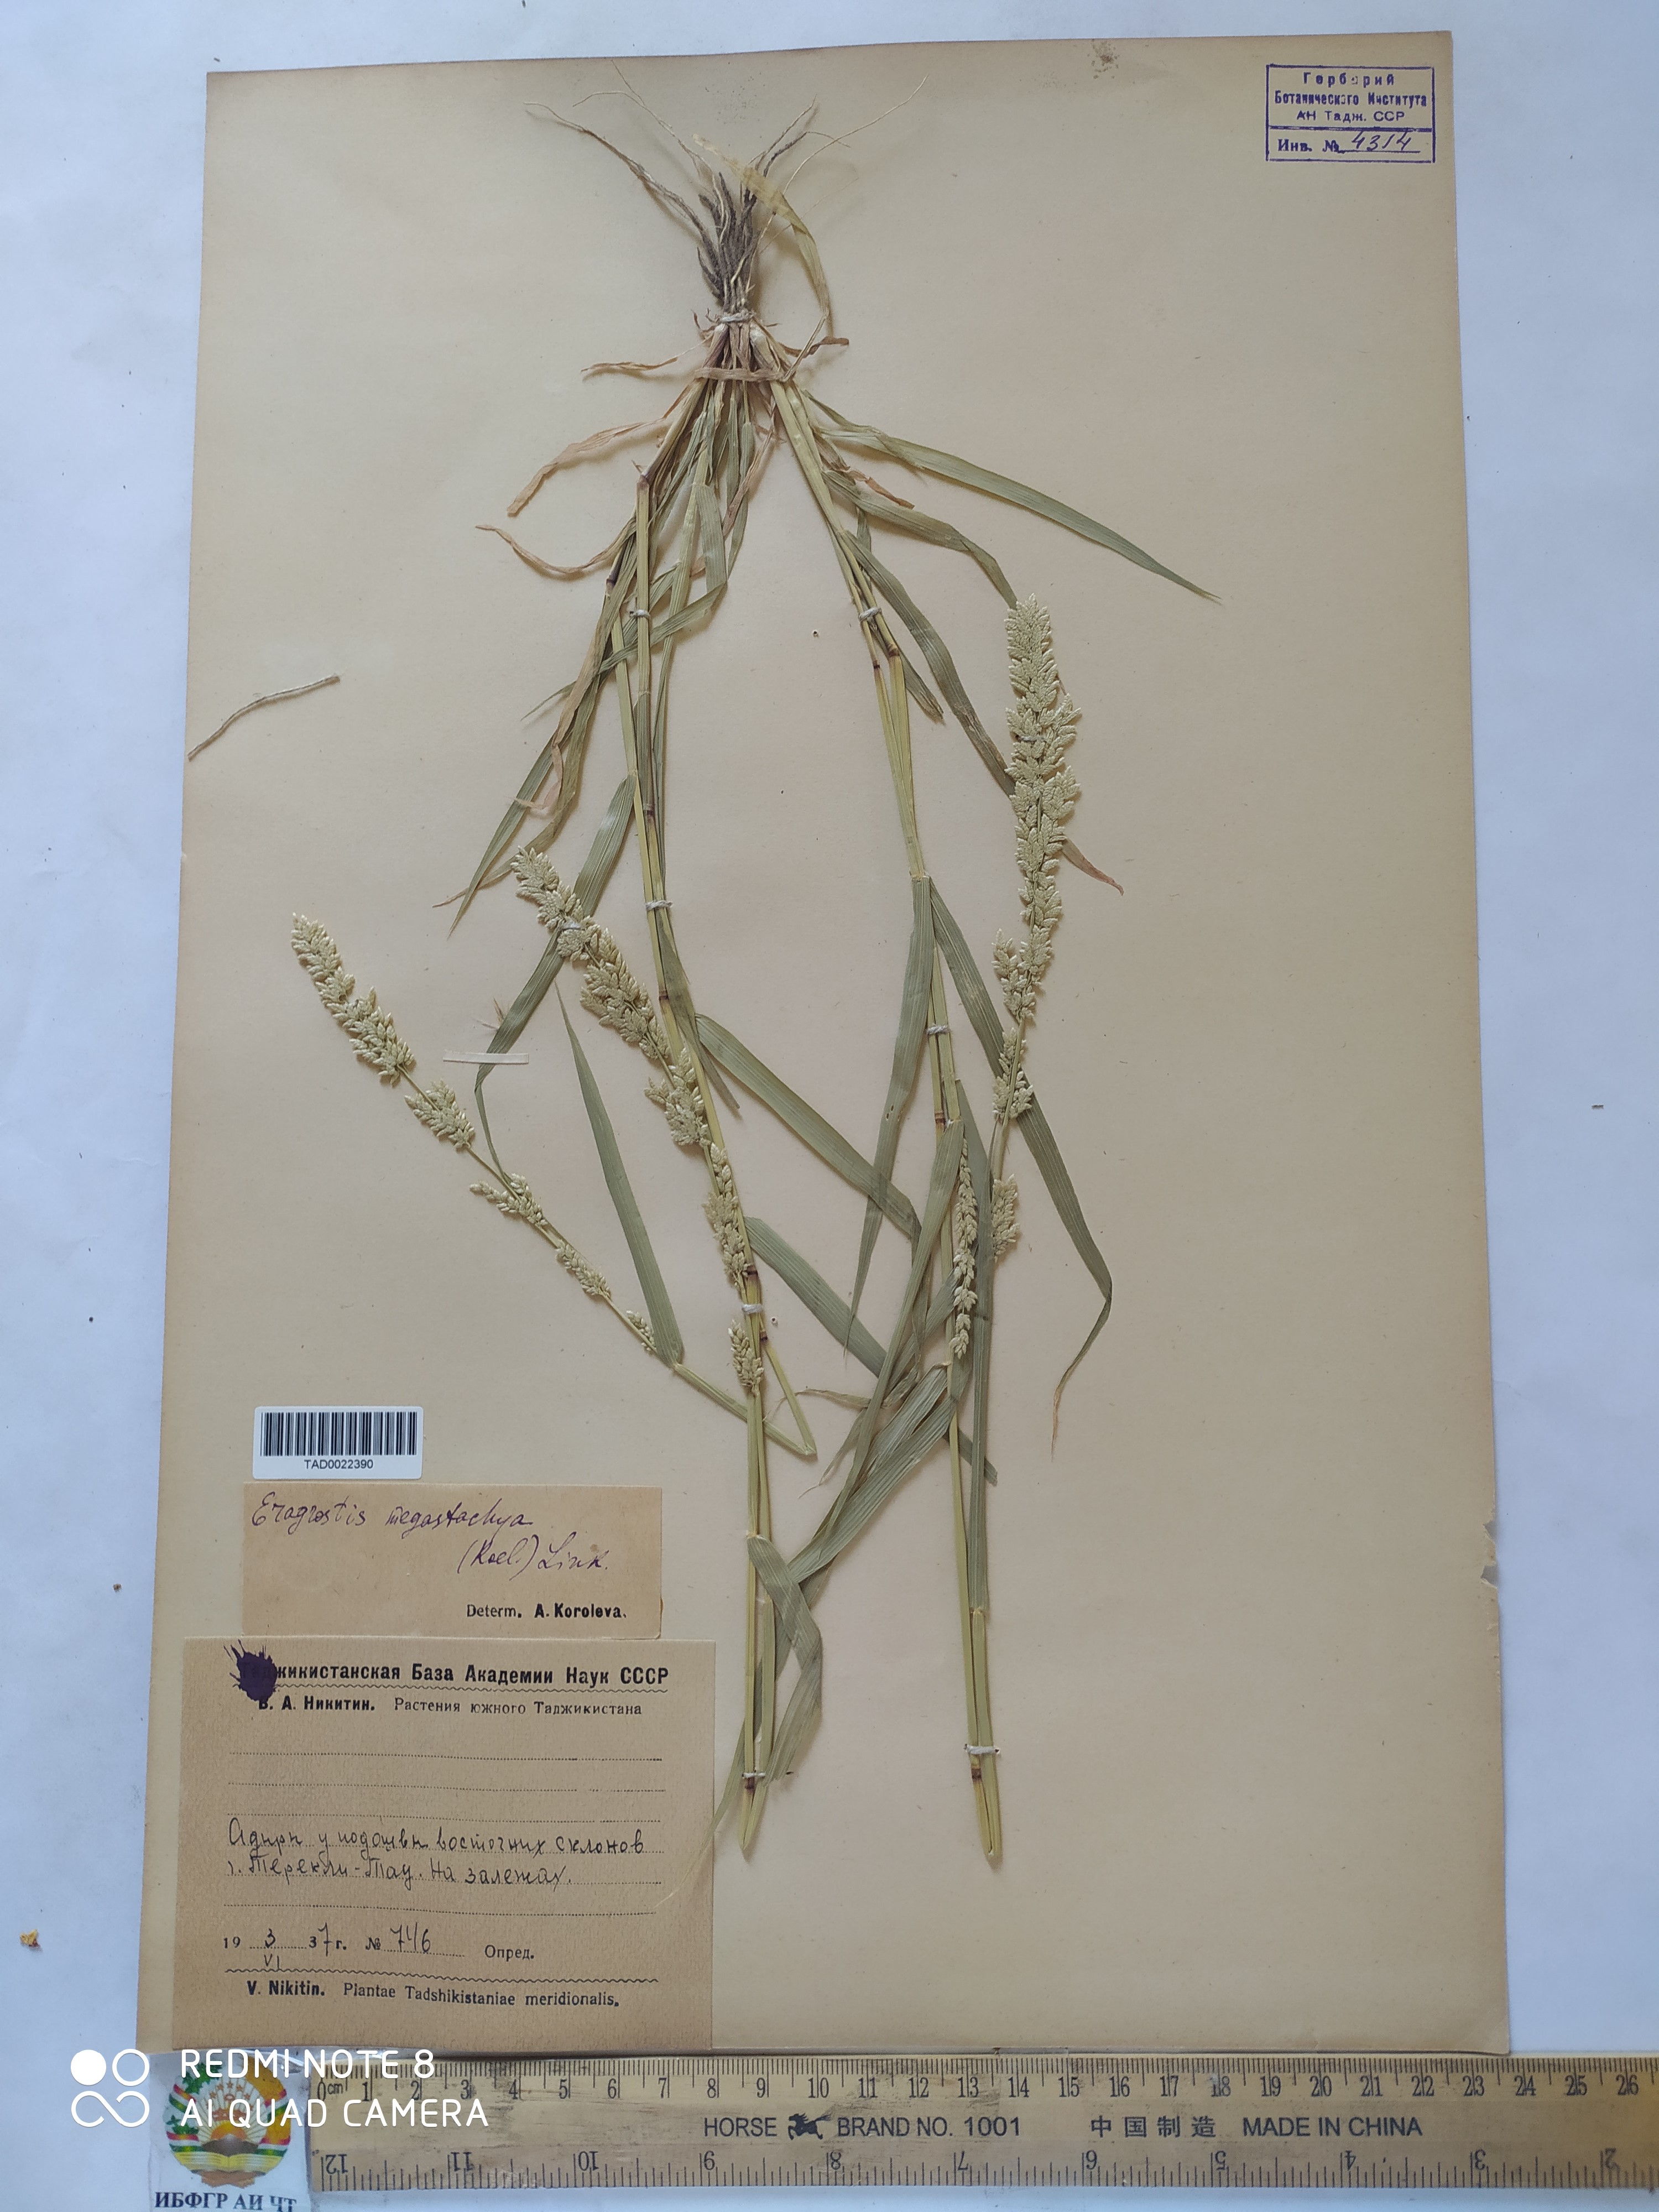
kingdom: Plantae
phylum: Tracheophyta
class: Liliopsida
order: Poales
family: Poaceae
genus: Eragrostis
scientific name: Eragrostis cilianensis
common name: Stinkgrass
